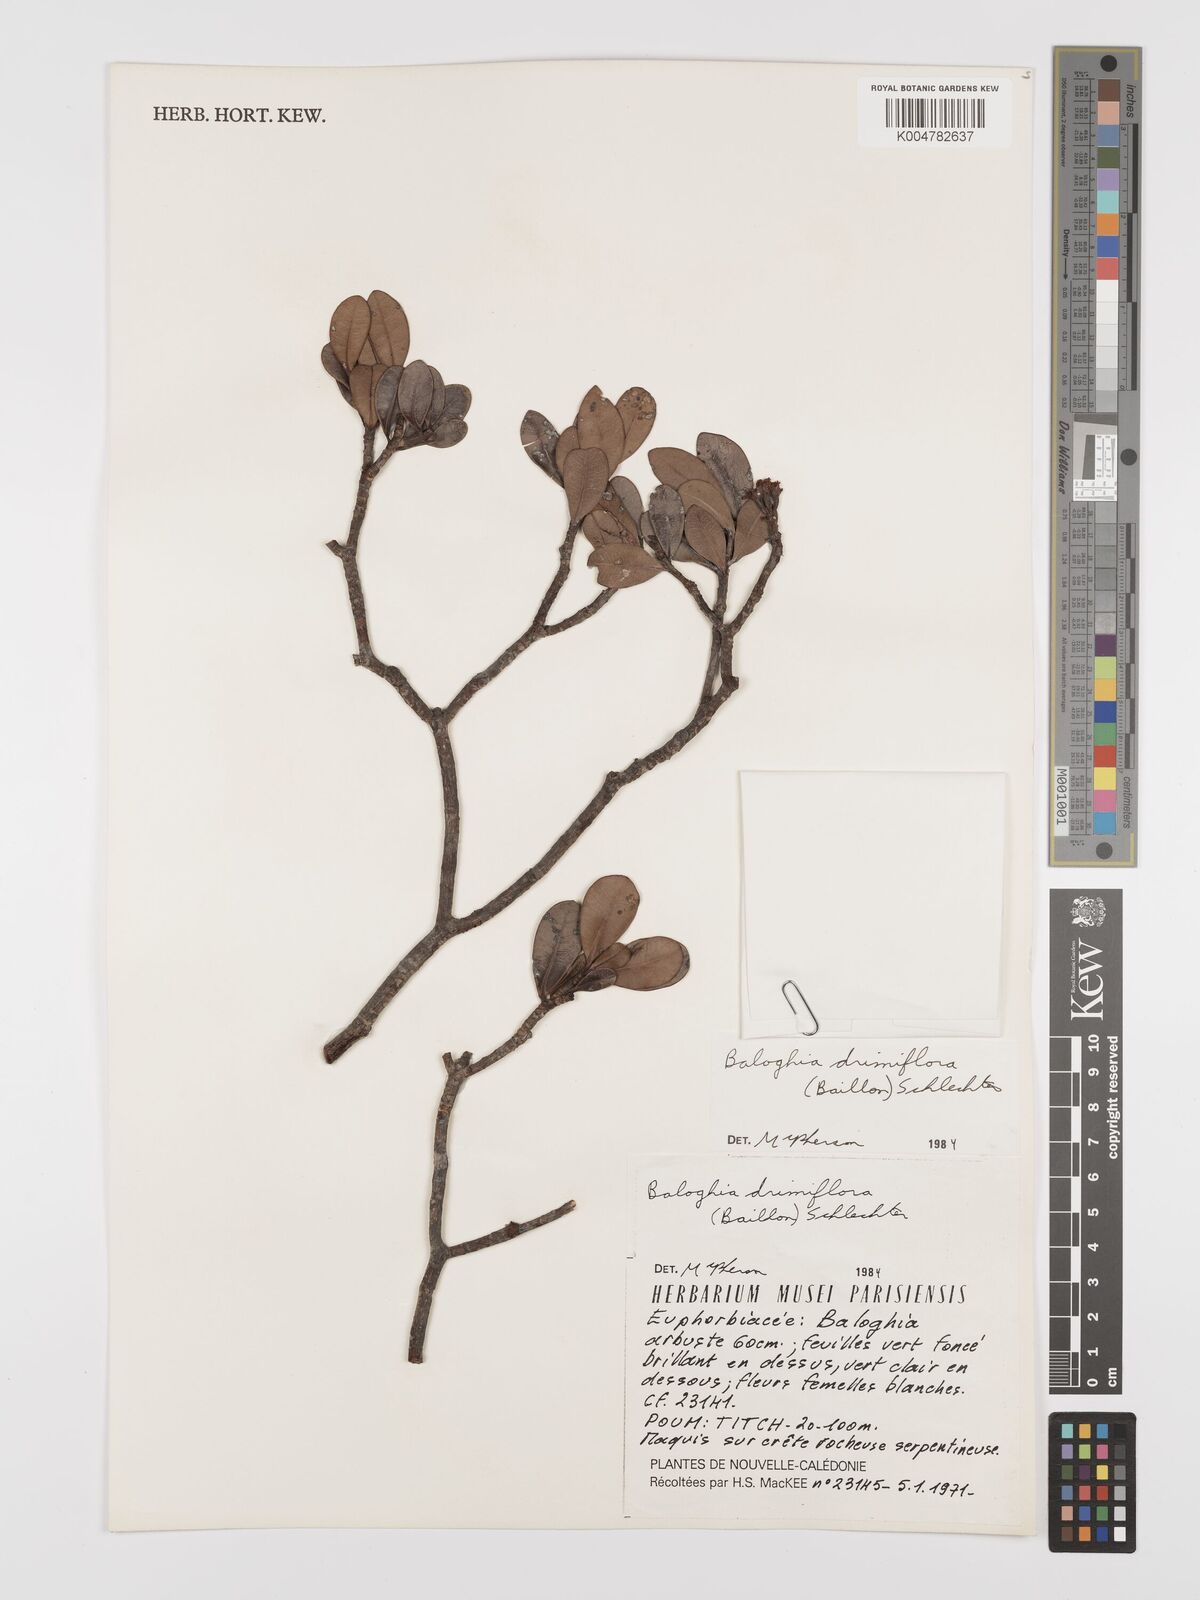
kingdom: Plantae
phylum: Tracheophyta
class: Magnoliopsida
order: Malpighiales
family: Euphorbiaceae
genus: Baloghia
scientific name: Baloghia drimiflora
